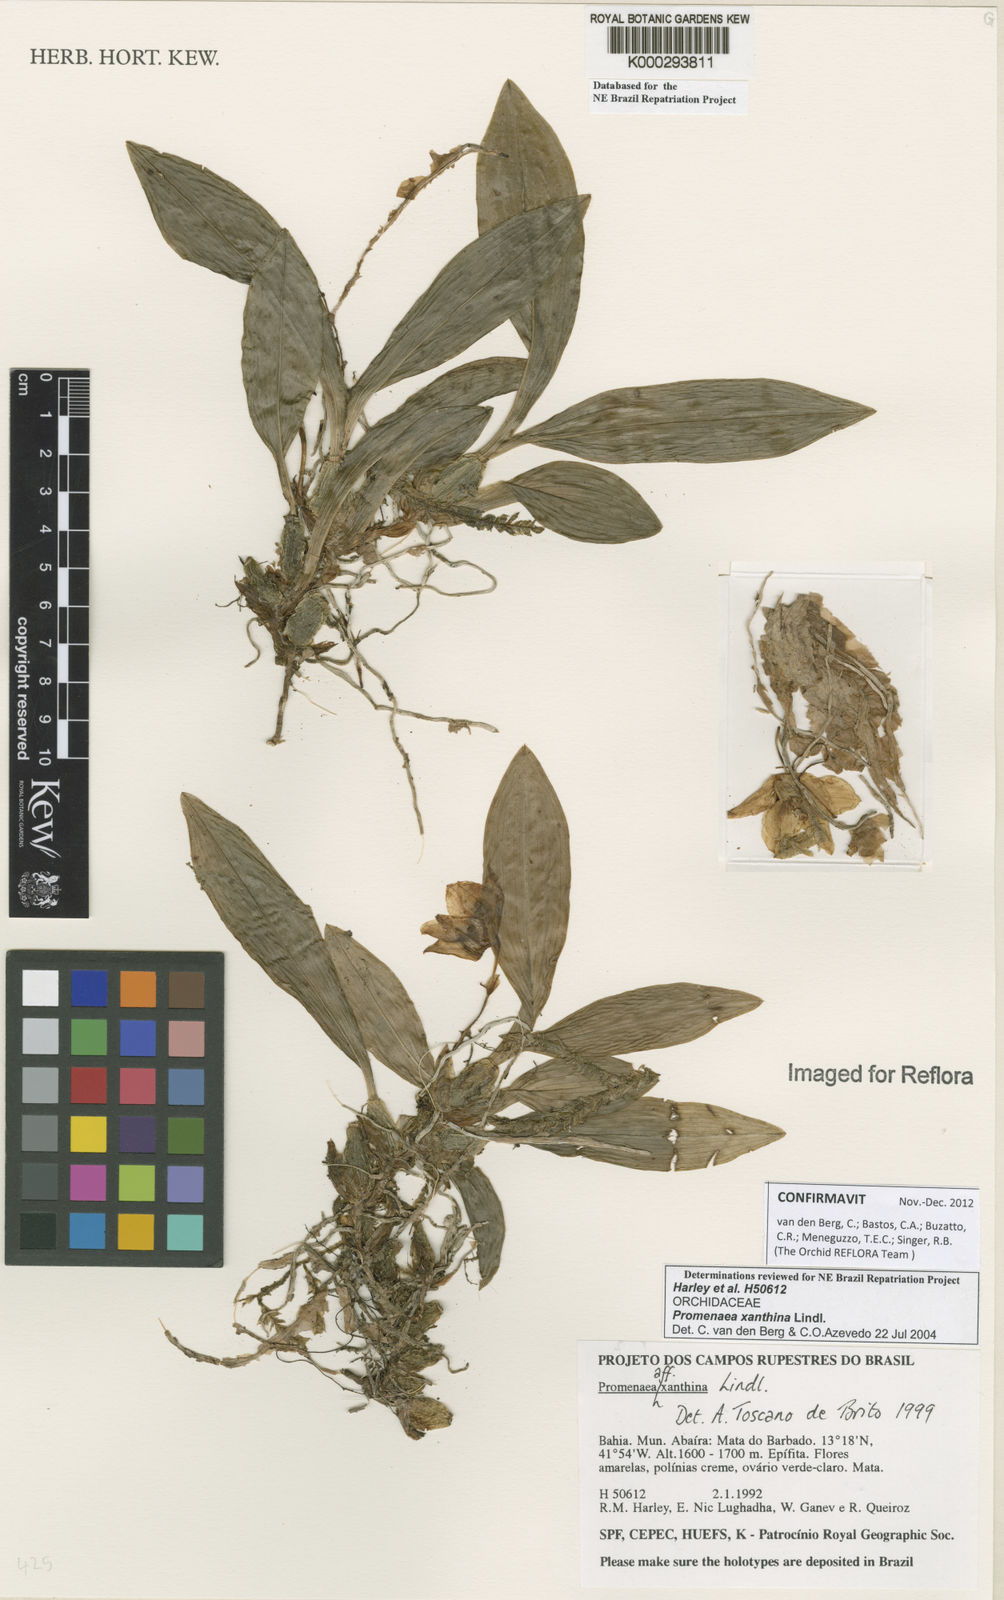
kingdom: Plantae
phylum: Tracheophyta
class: Liliopsida
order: Asparagales
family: Orchidaceae
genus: Promenaea
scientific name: Promenaea xanthina
